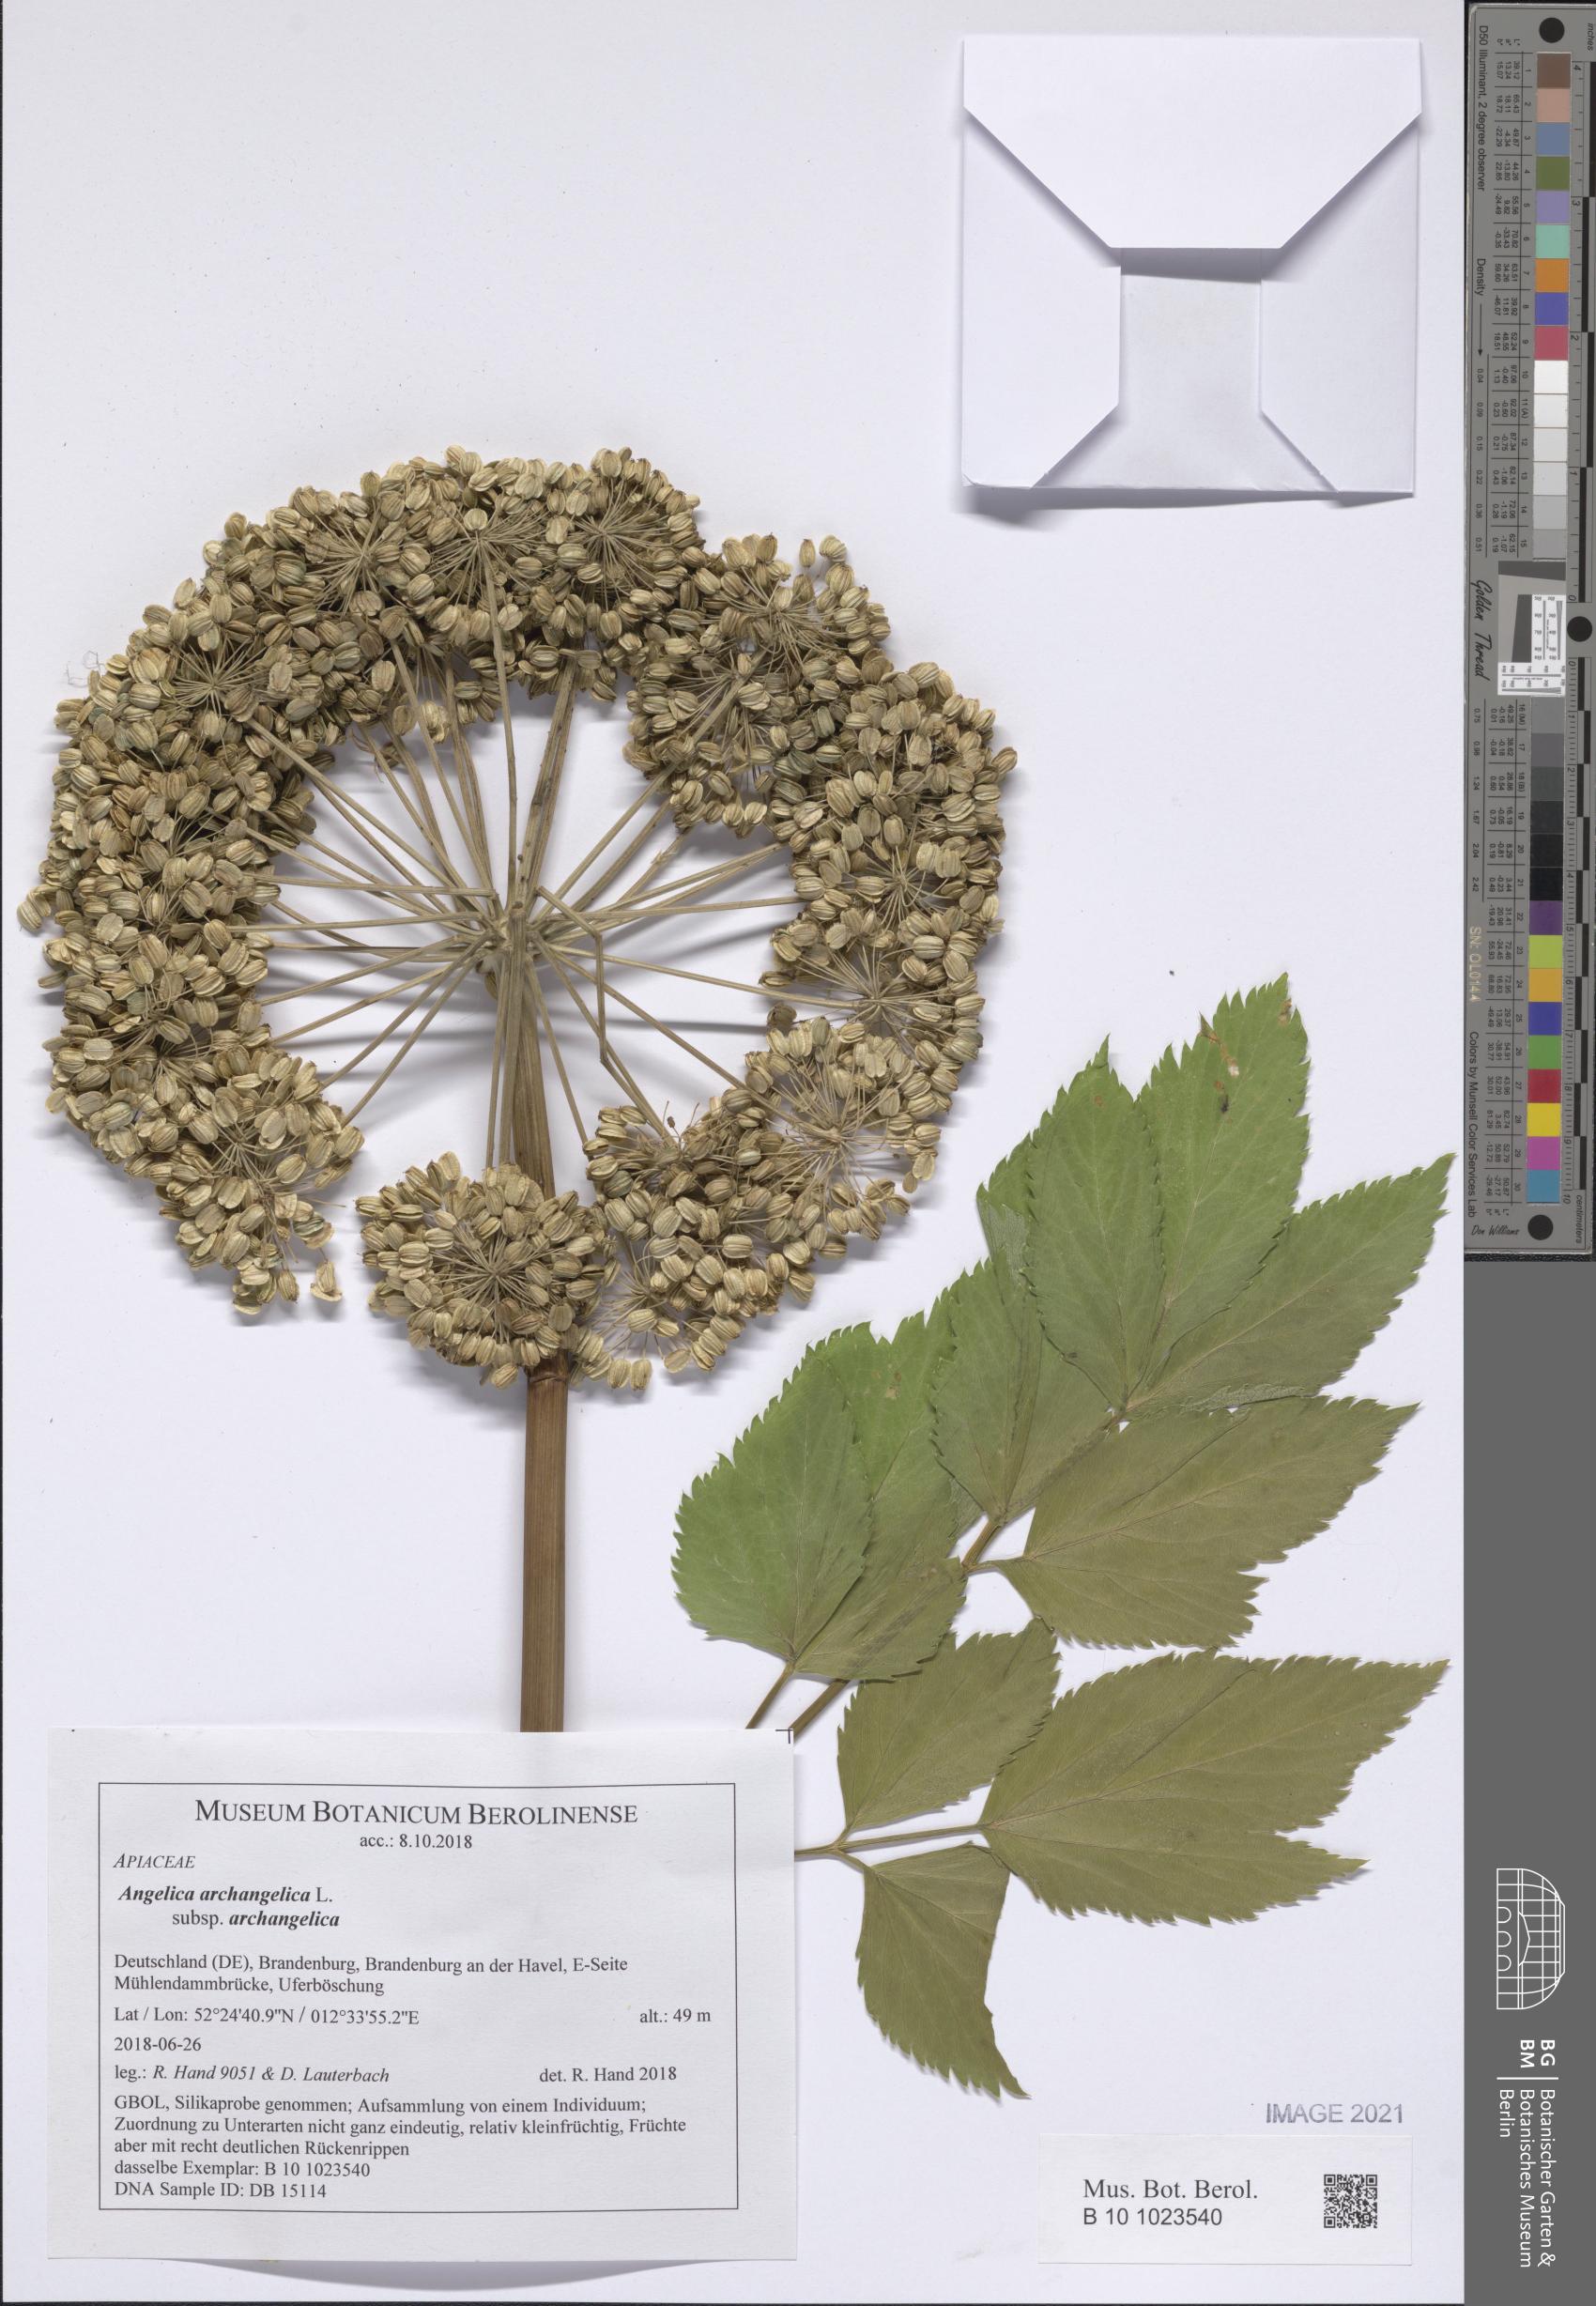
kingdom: Plantae
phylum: Tracheophyta
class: Magnoliopsida
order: Apiales
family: Apiaceae
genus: Angelica
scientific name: Angelica archangelica
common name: Garden angelica
